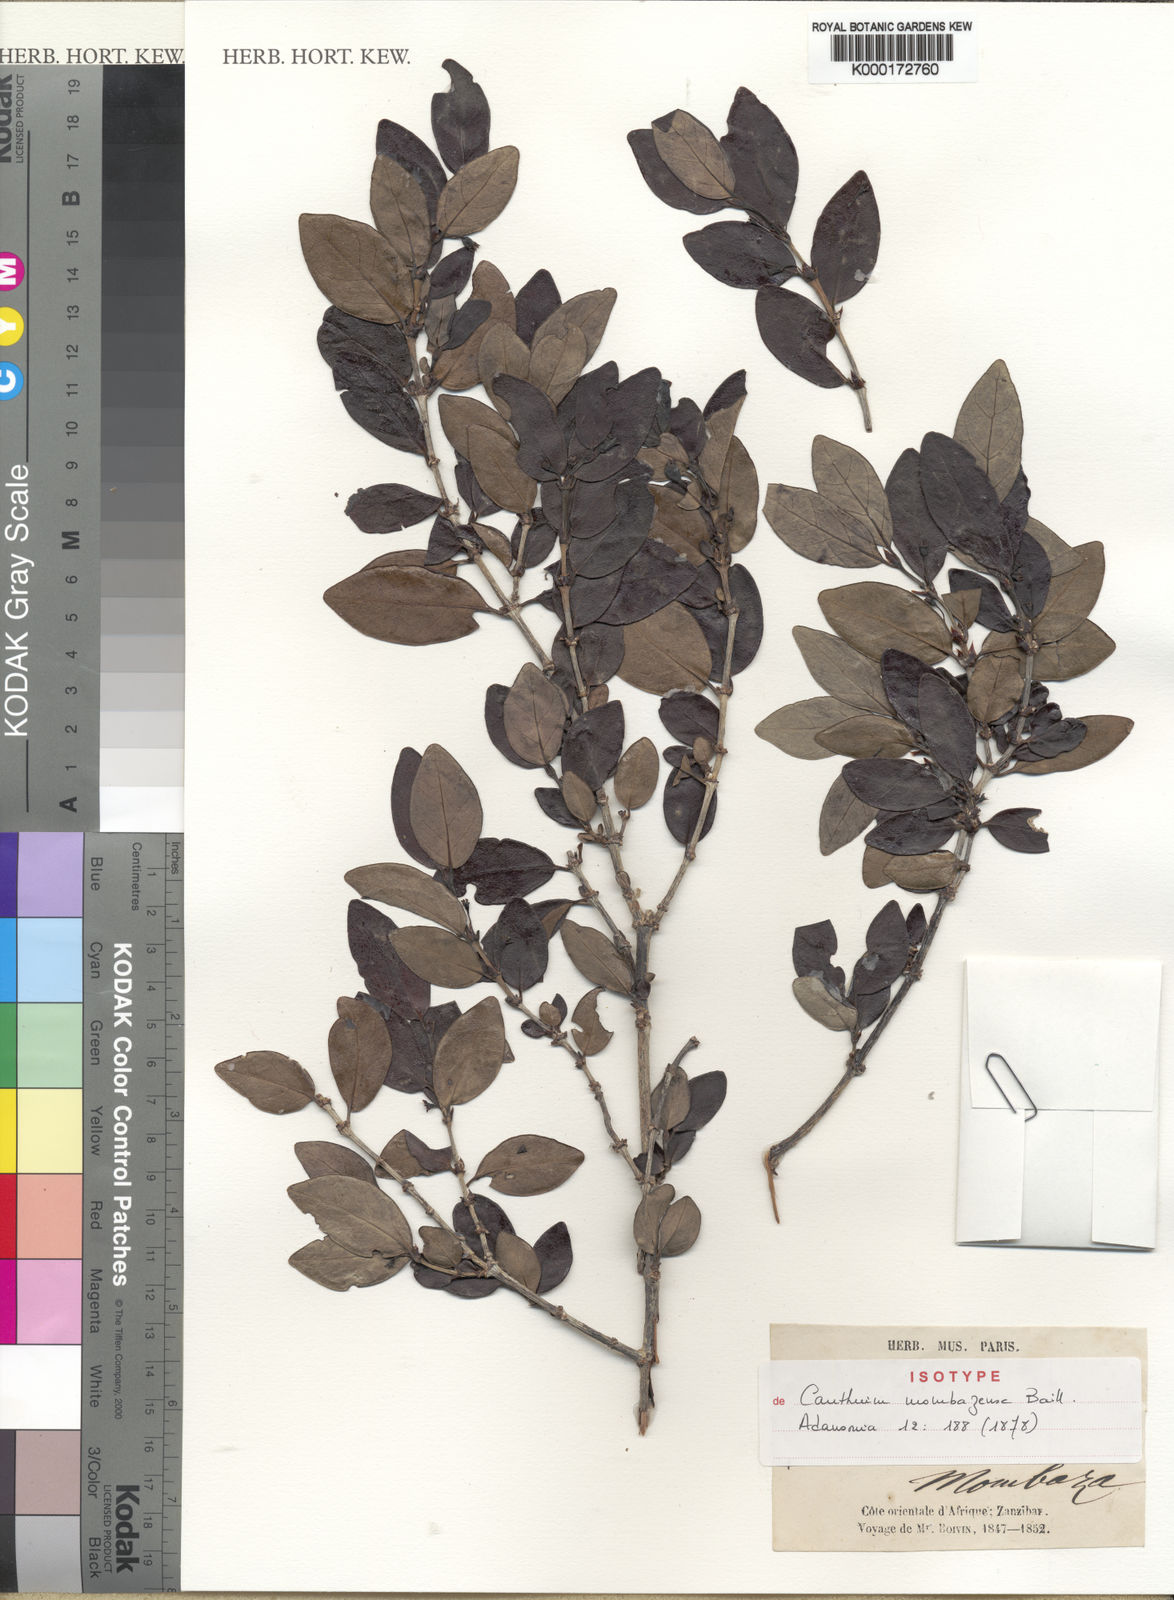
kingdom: Plantae
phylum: Tracheophyta
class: Magnoliopsida
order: Gentianales
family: Rubiaceae
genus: Bullockia
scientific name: Bullockia mombazensis
